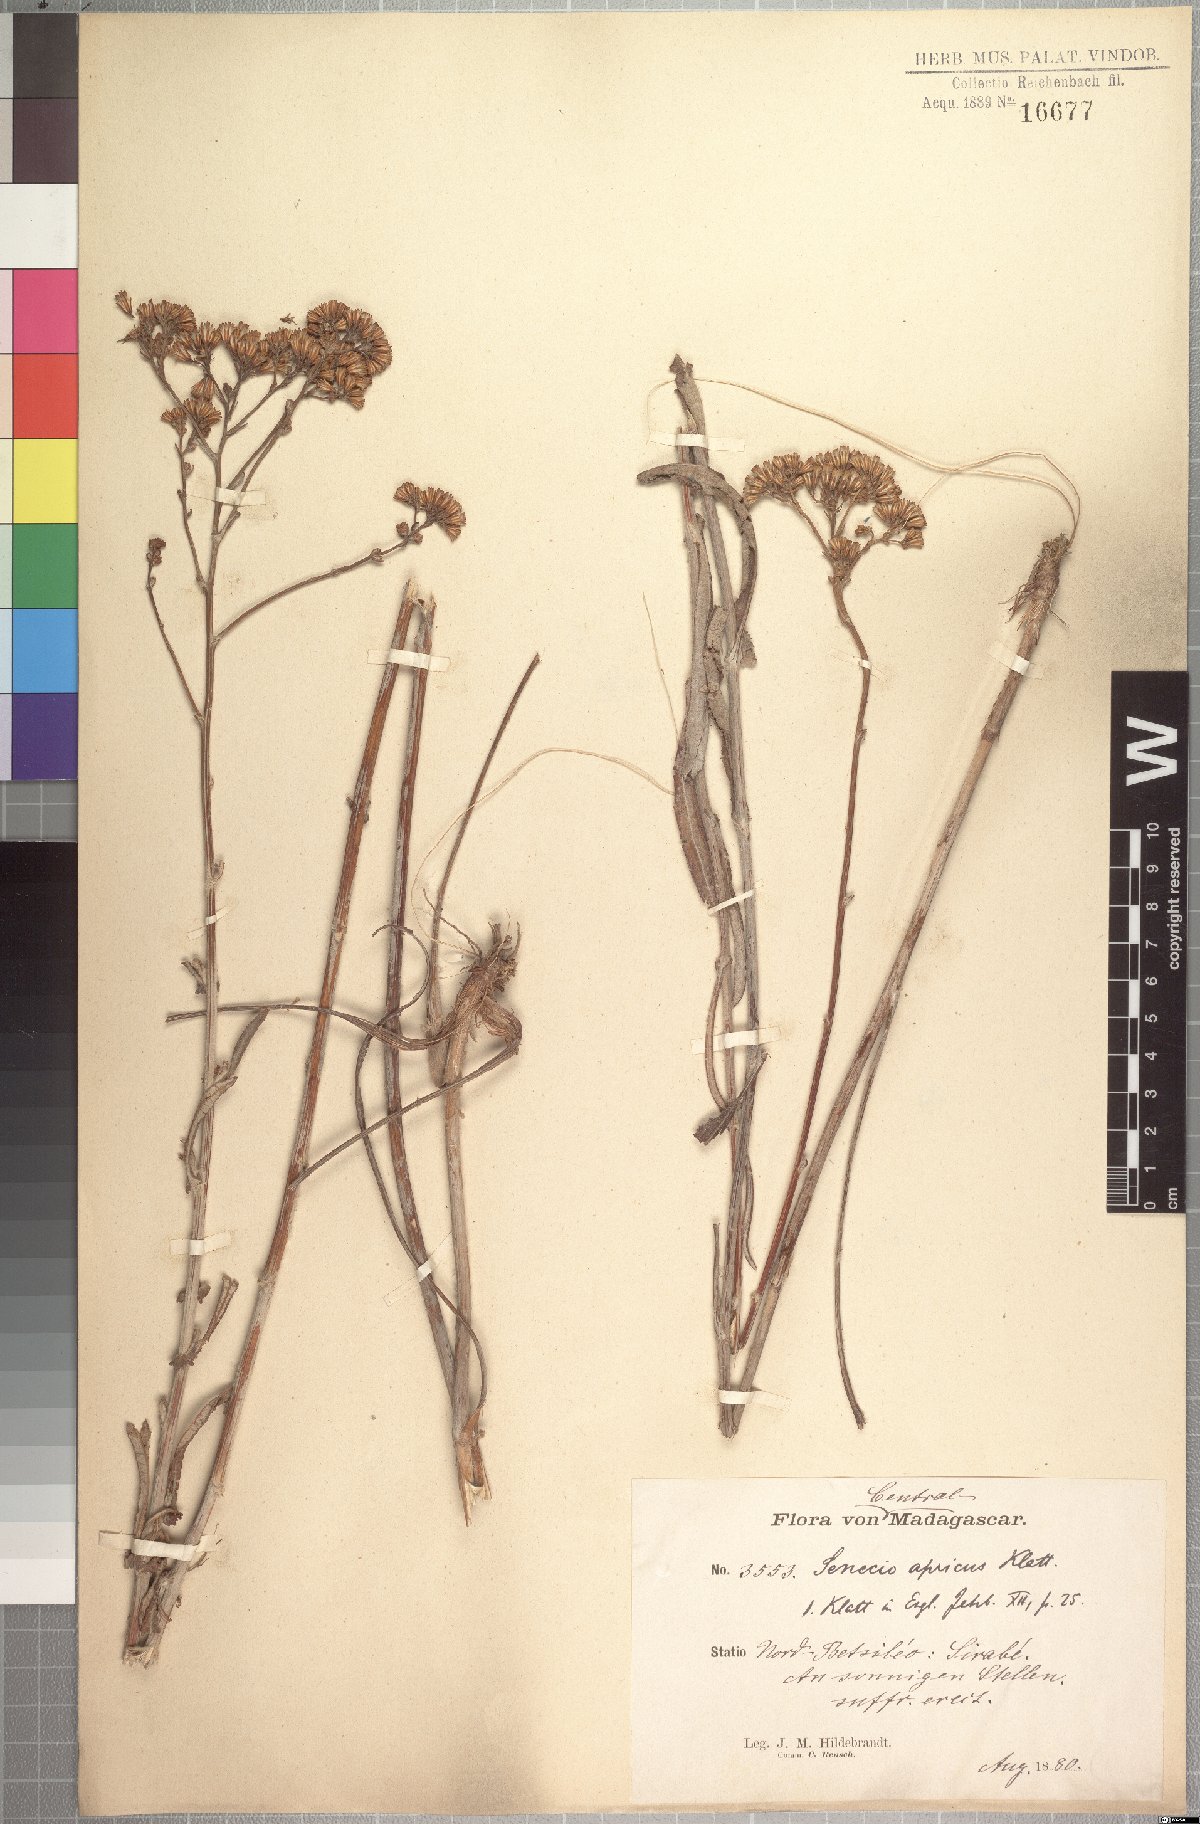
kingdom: Plantae
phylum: Tracheophyta
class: Magnoliopsida
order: Asterales
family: Asteraceae
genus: Senecio
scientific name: Senecio longiscapus
